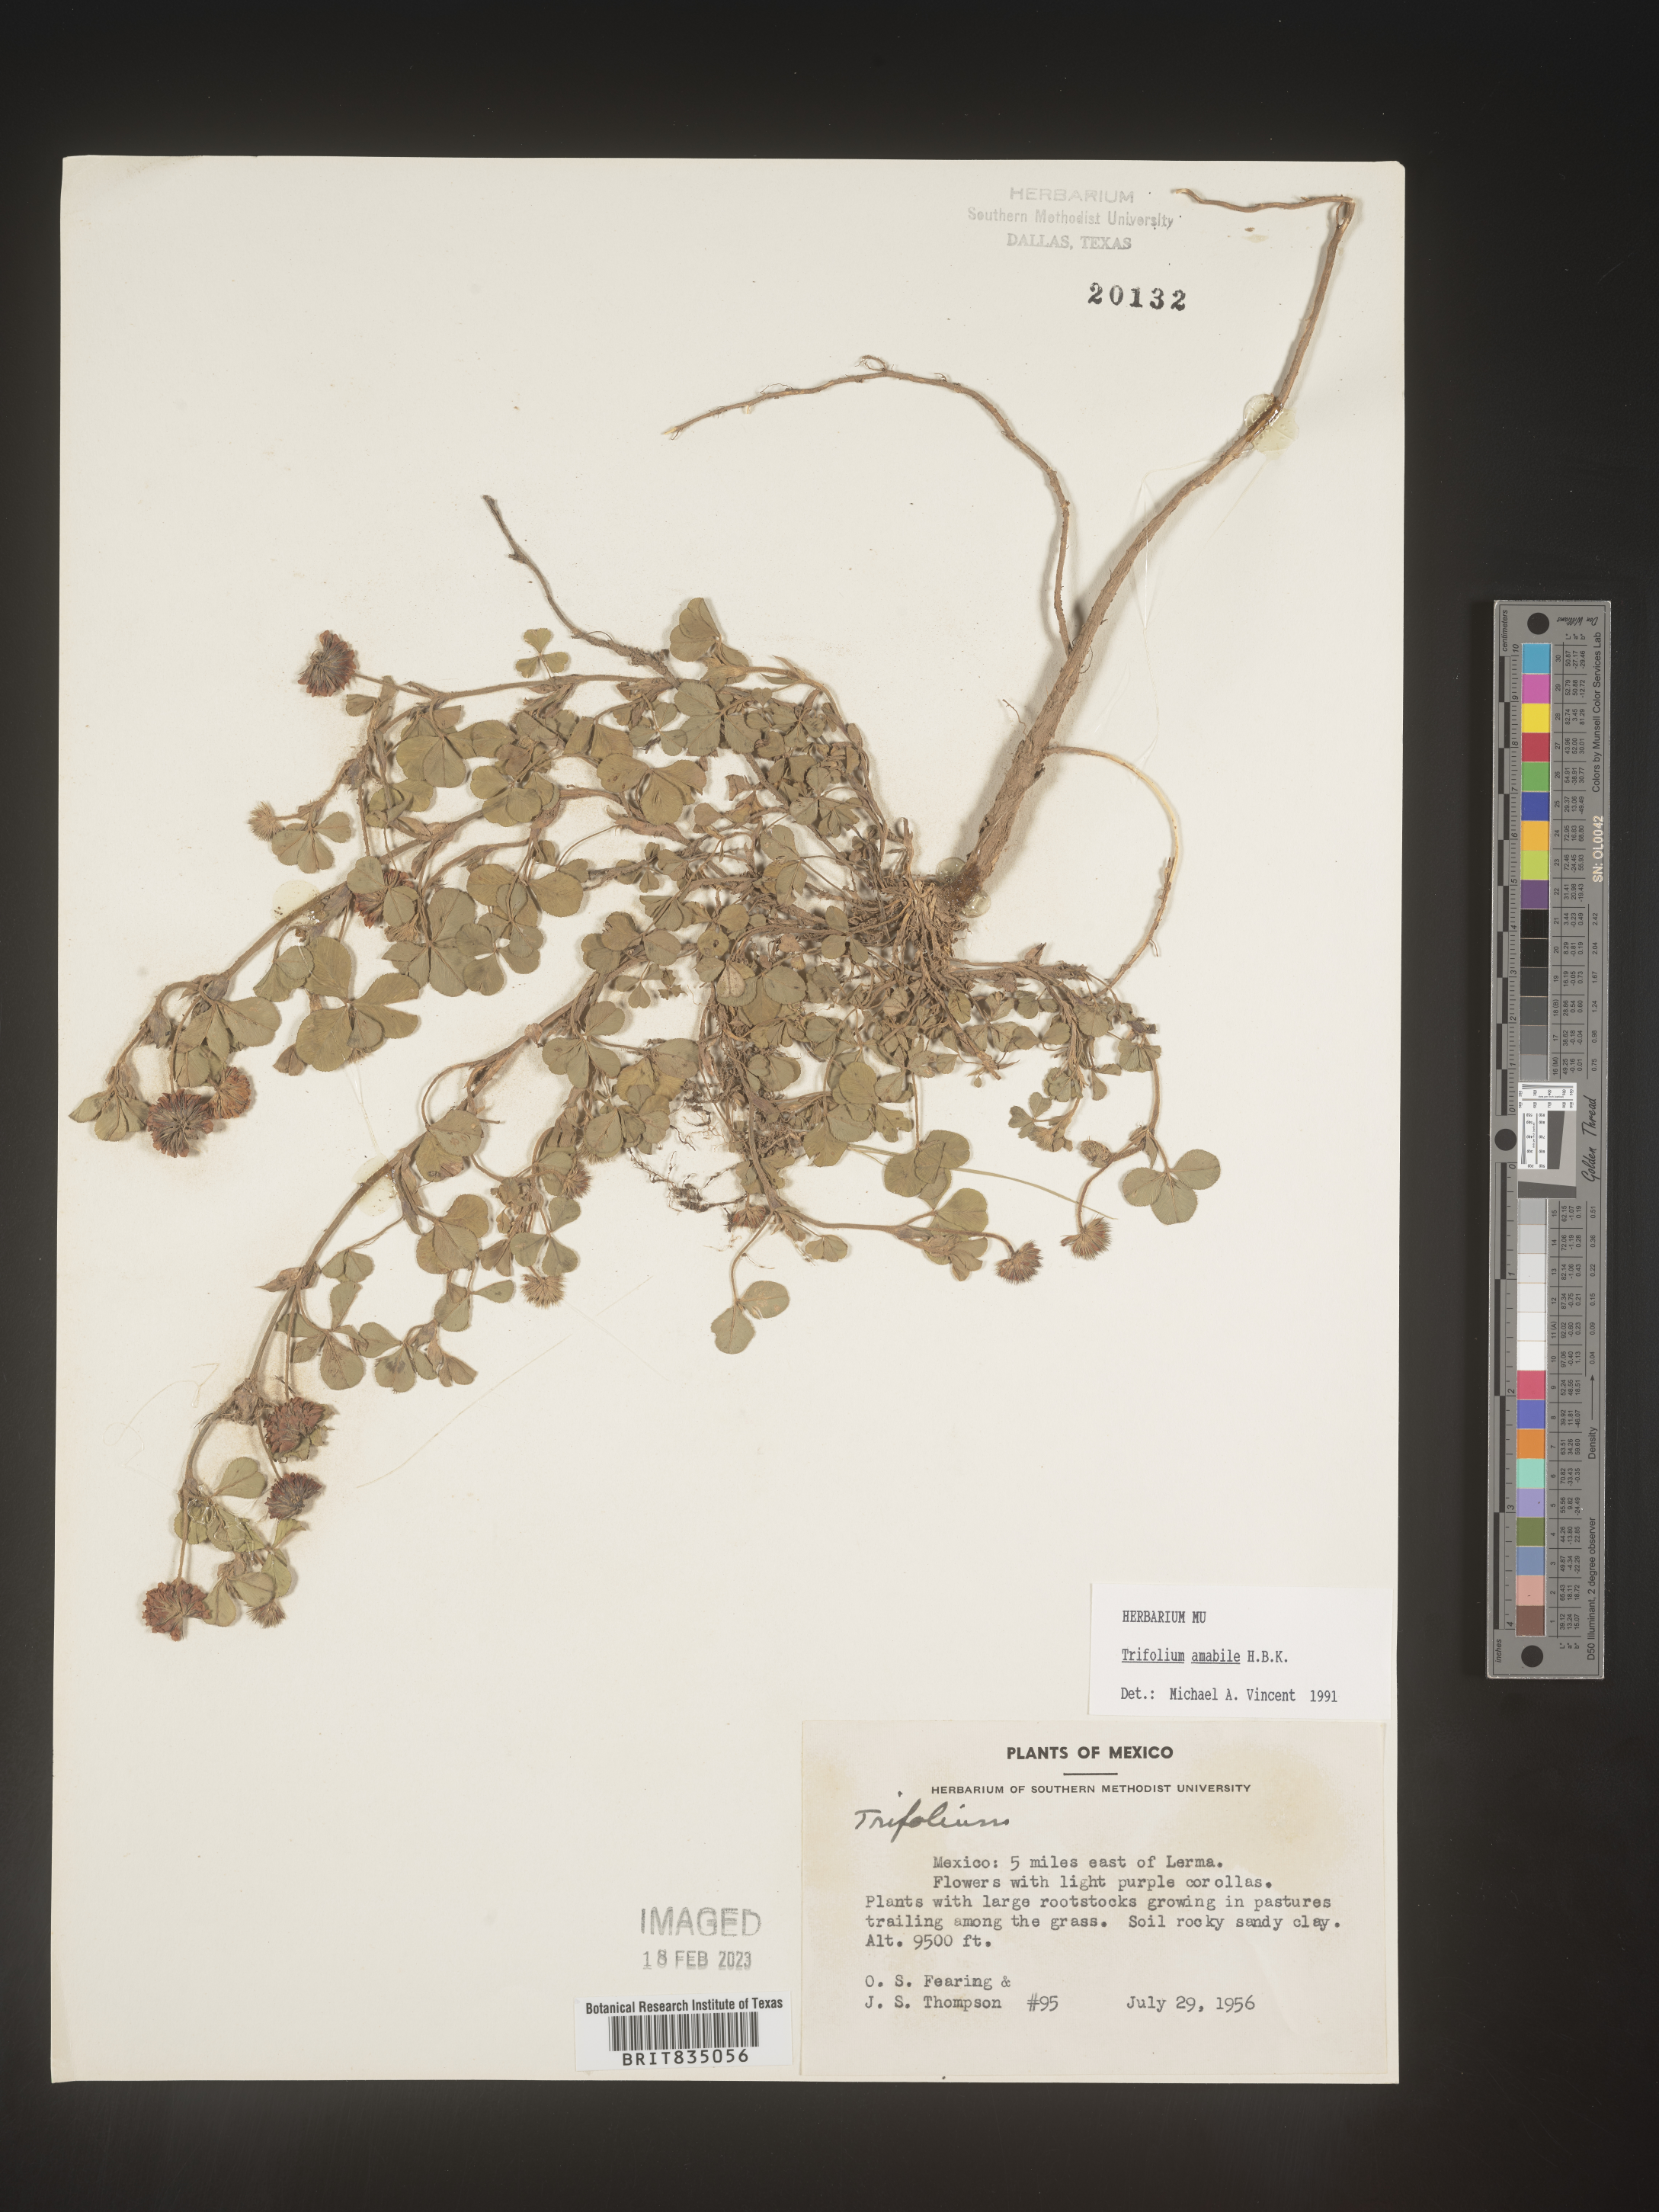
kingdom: Plantae
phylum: Tracheophyta
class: Magnoliopsida
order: Fabales
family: Fabaceae
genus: Trifolium
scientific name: Trifolium
